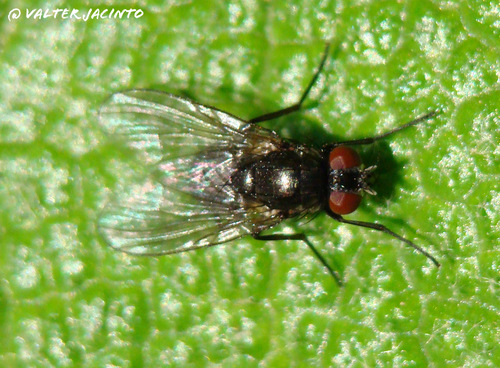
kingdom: Animalia
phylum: Arthropoda
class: Insecta
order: Diptera
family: Muscidae
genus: Hebecnema
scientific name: Hebecnema
